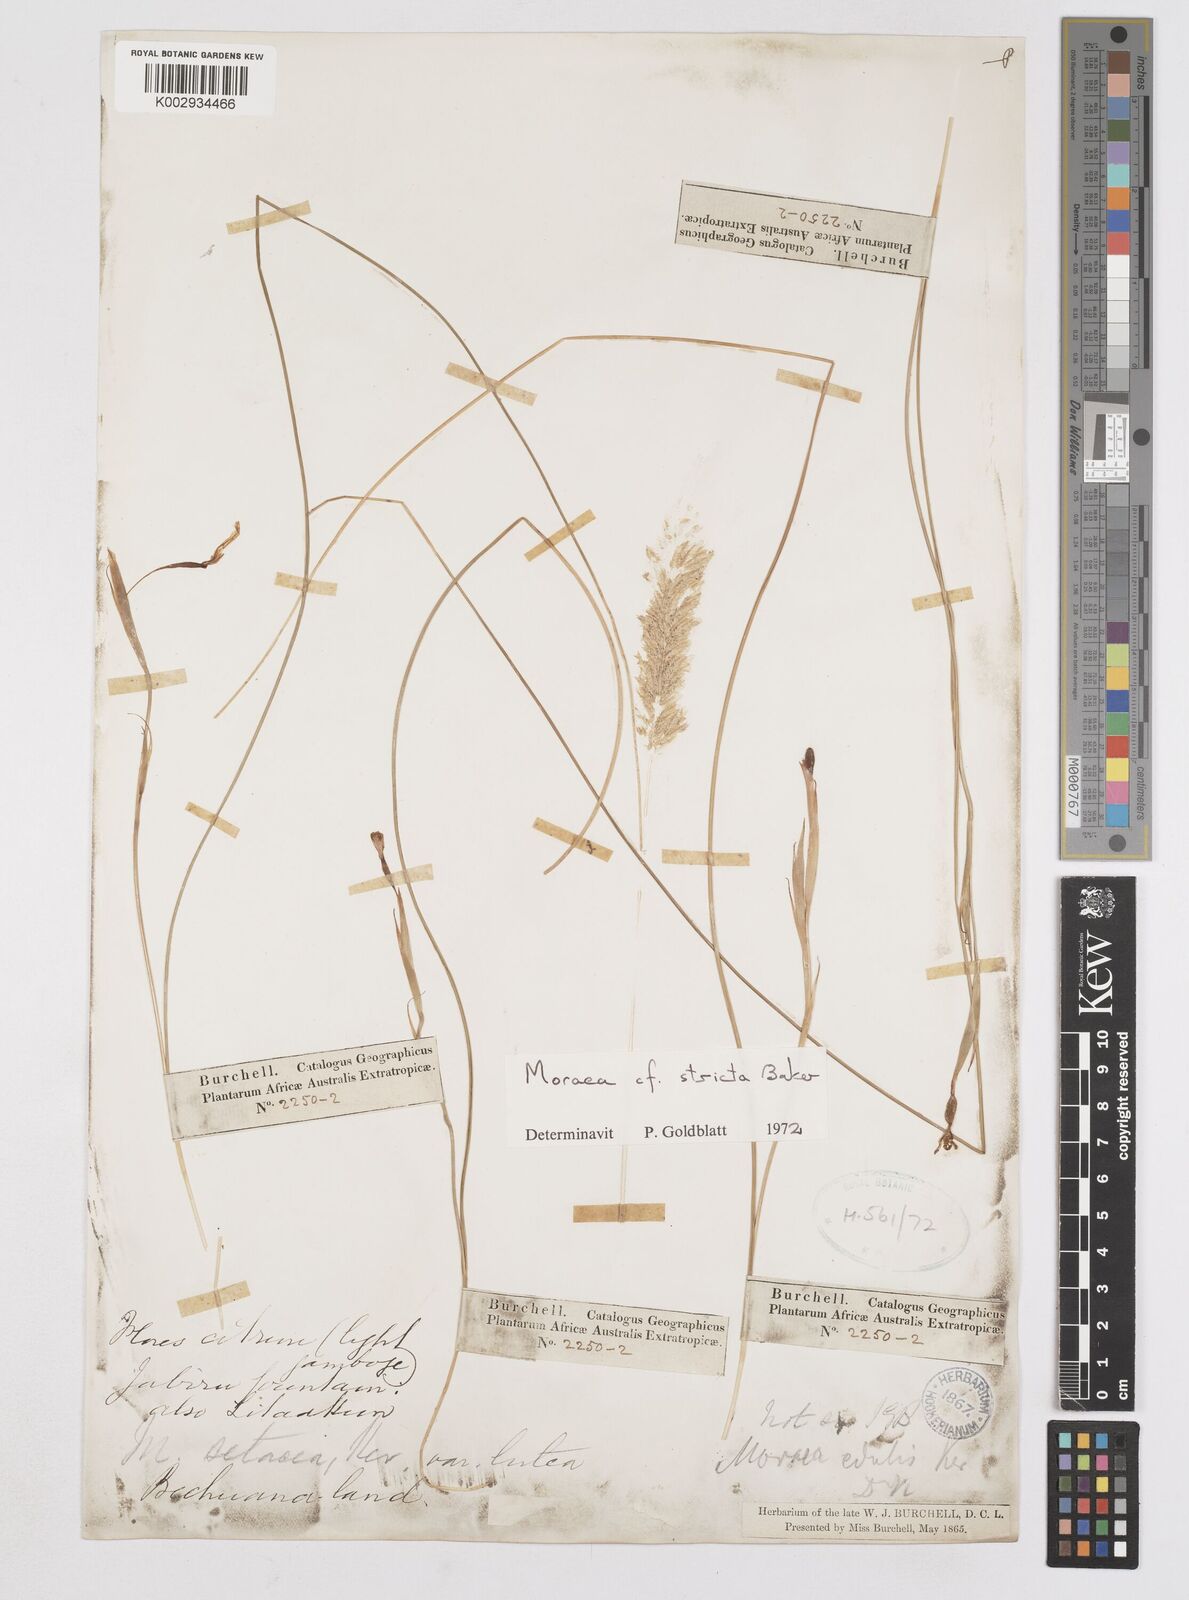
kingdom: Plantae
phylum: Tracheophyta
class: Liliopsida
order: Asparagales
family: Iridaceae
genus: Moraea
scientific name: Moraea stricta
